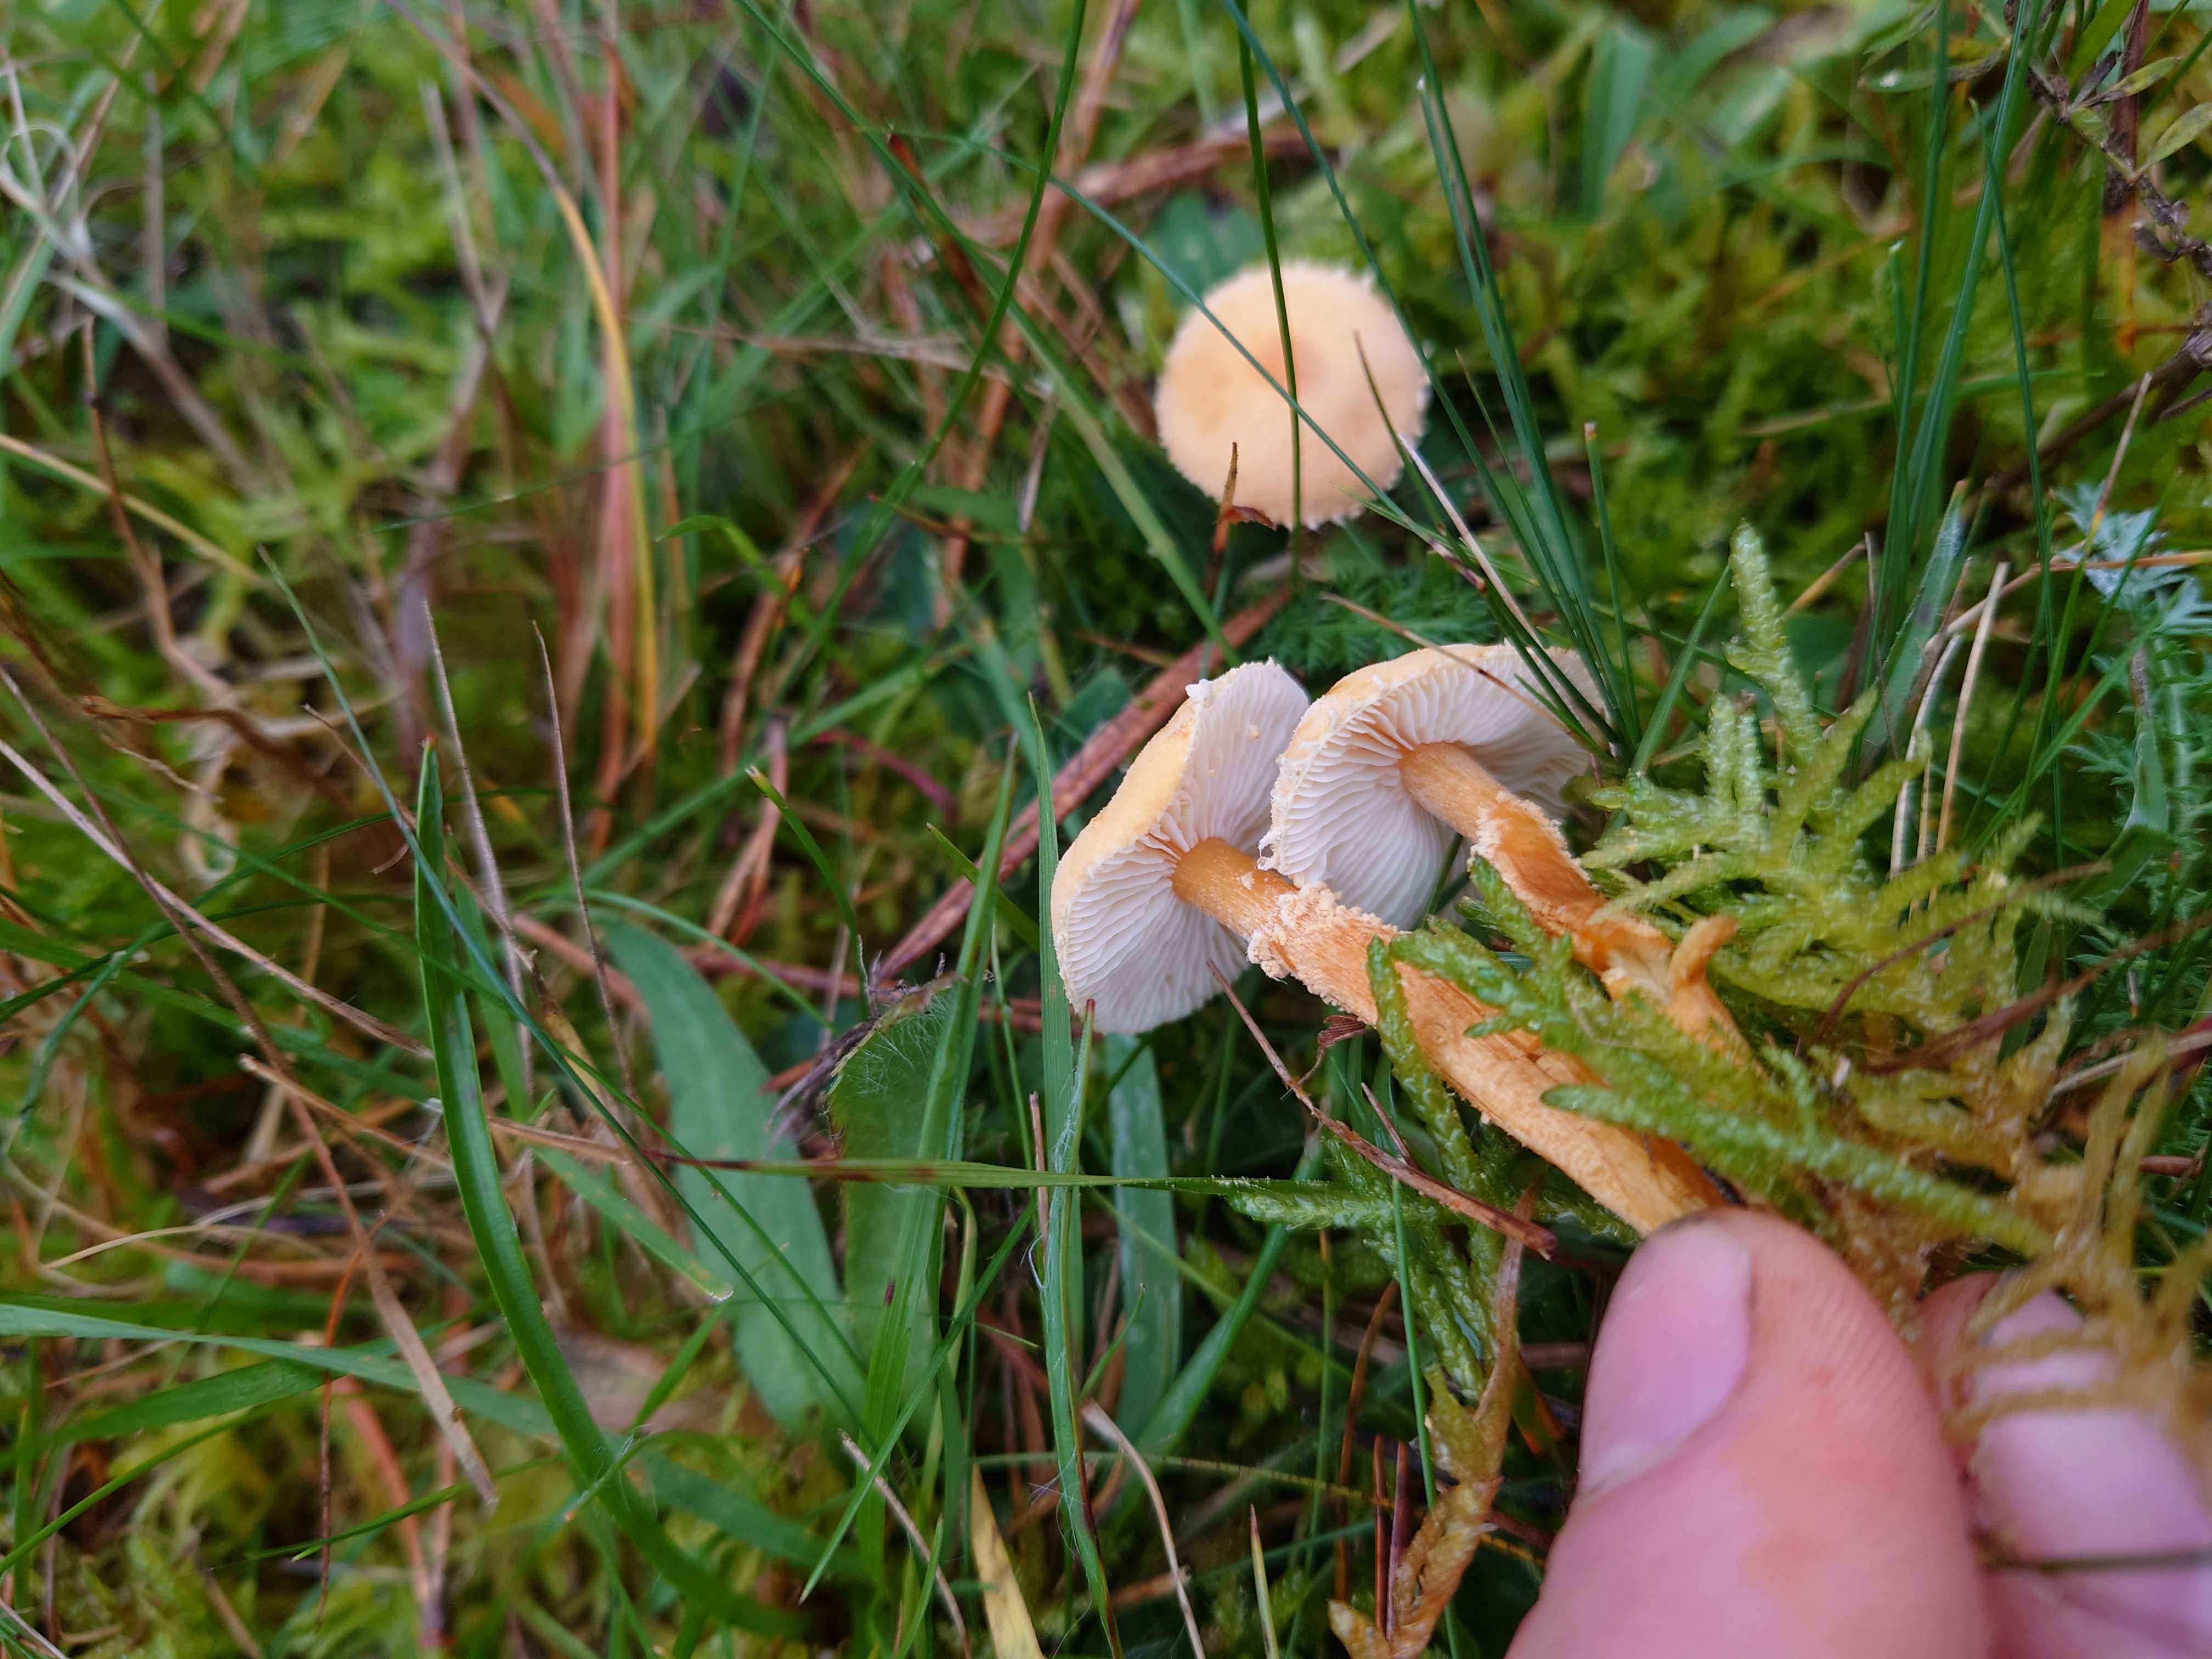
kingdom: Fungi
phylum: Basidiomycota
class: Agaricomycetes
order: Agaricales
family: Tricholomataceae
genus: Cystoderma
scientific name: Cystoderma amianthinum
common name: okkergul grynhat
